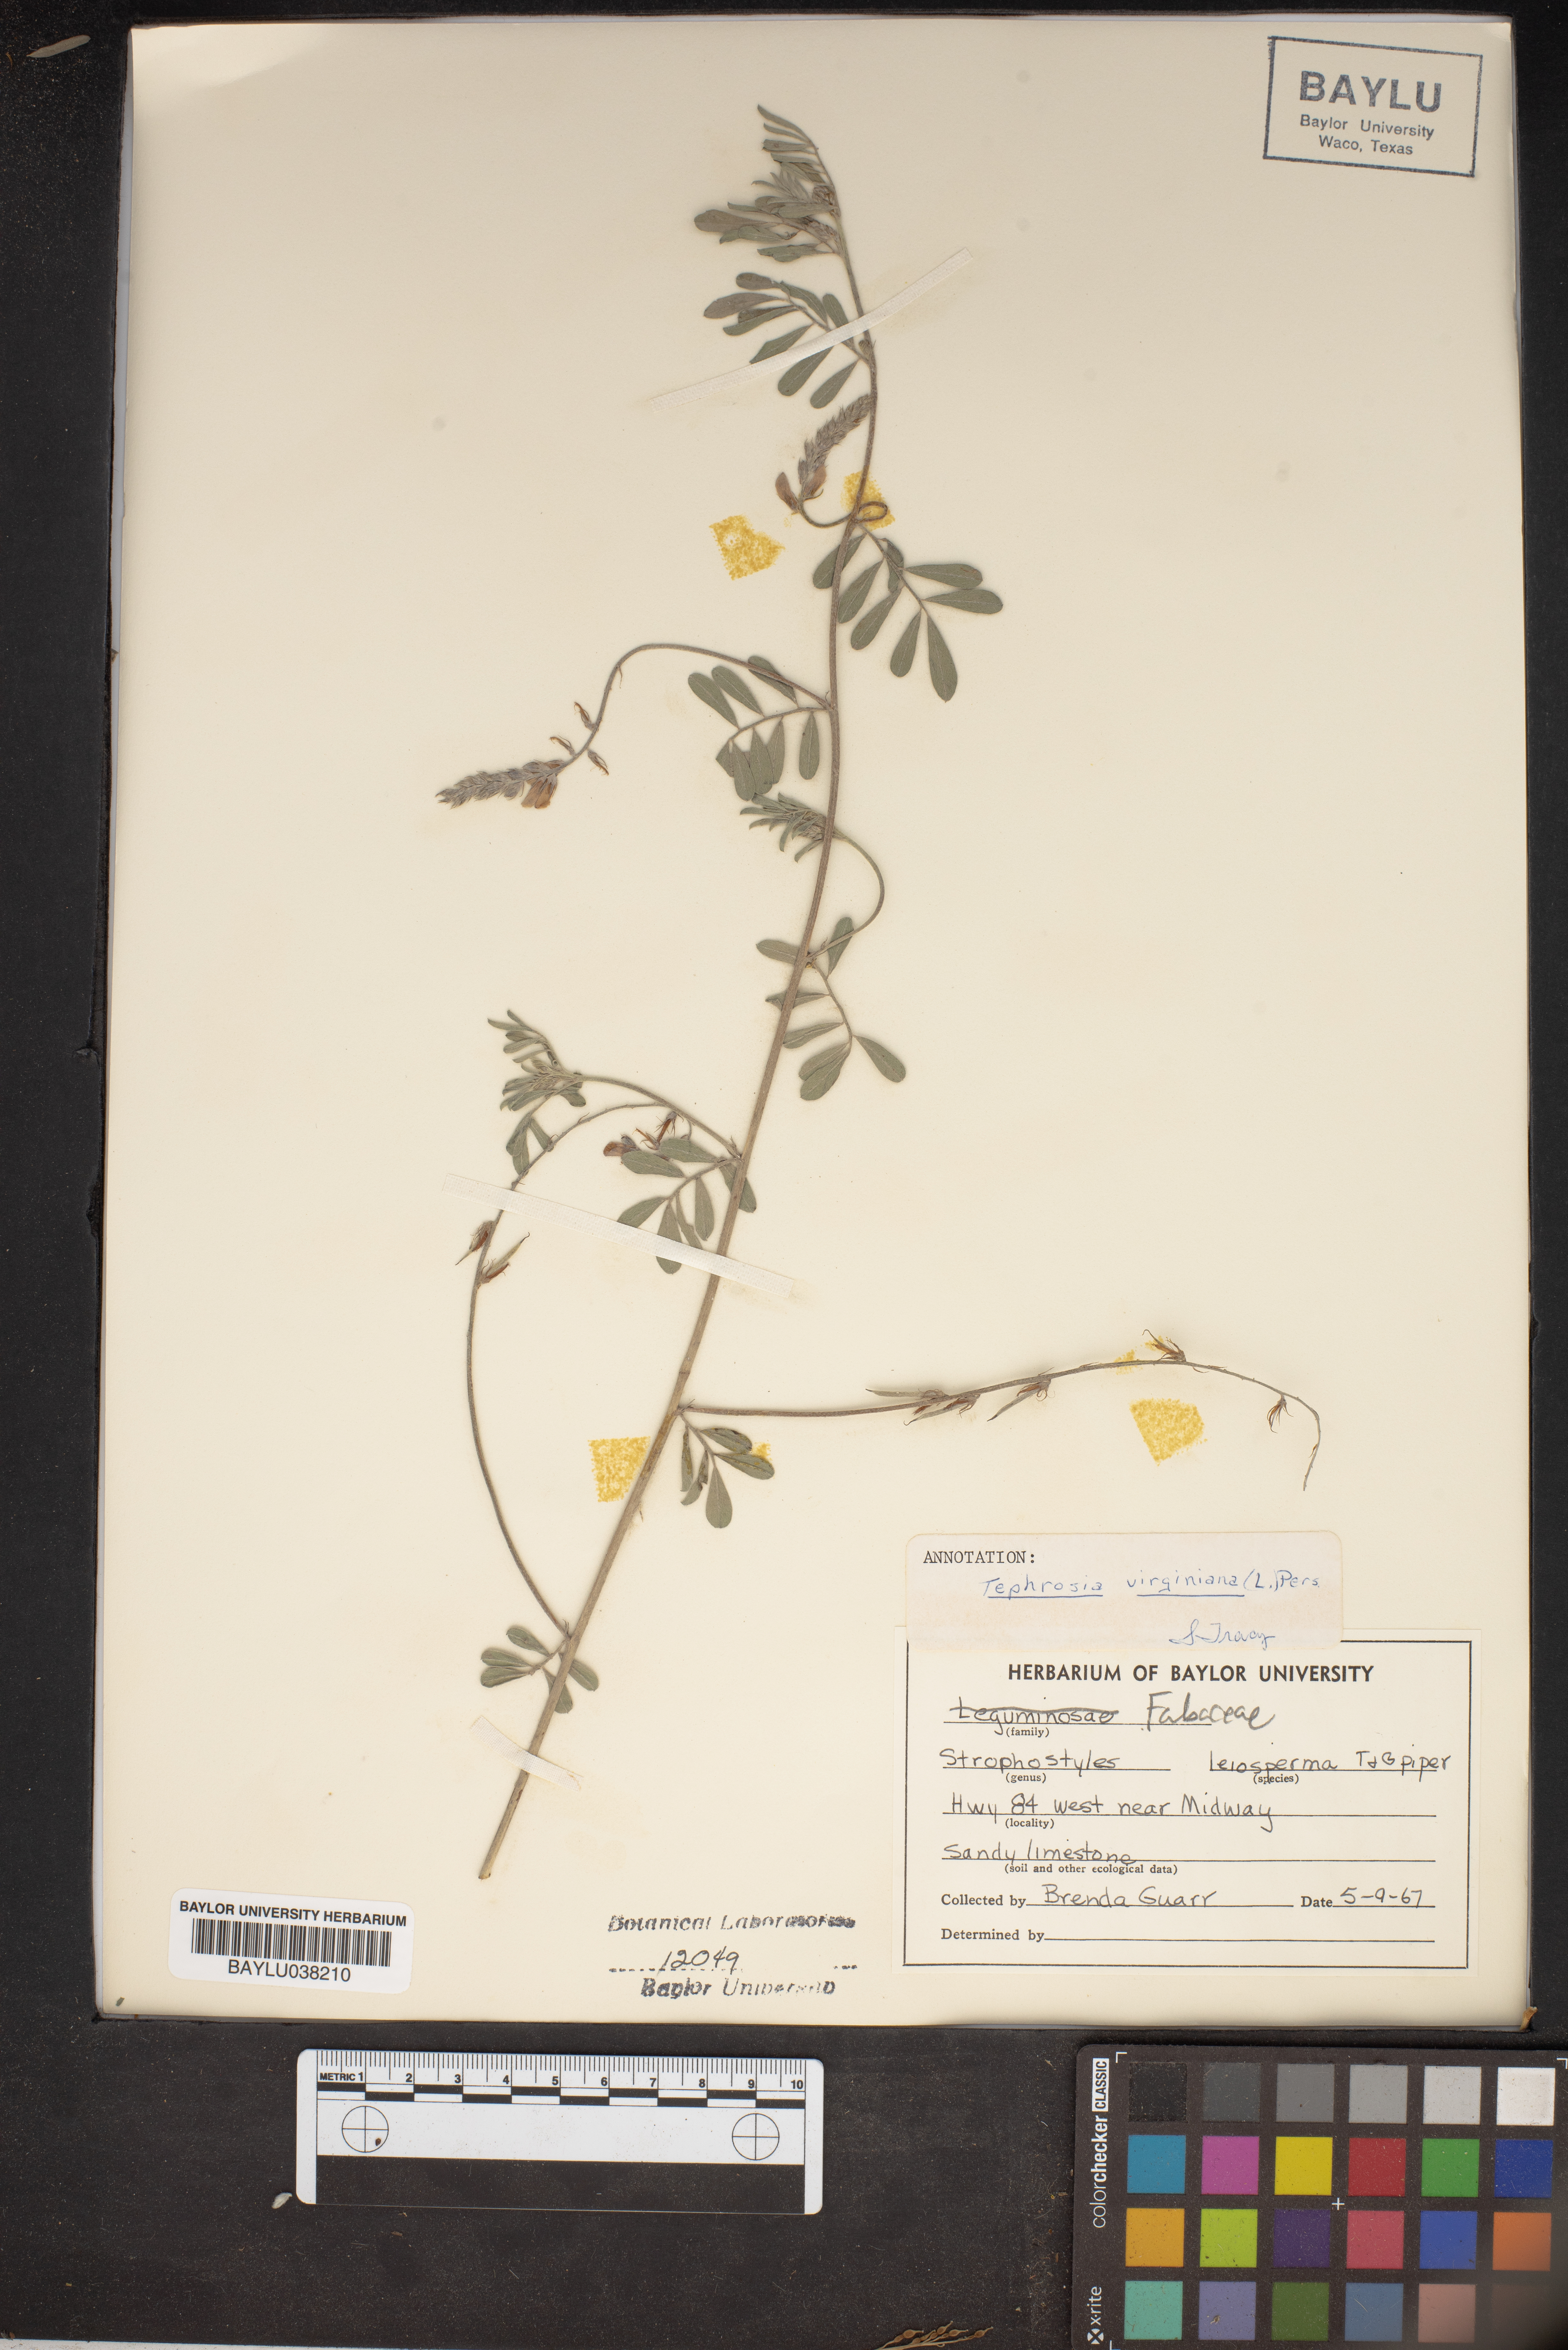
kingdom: Plantae
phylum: Tracheophyta
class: Magnoliopsida
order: Fabales
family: Fabaceae
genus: Strophostyles
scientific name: Strophostyles leiosperma
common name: Smooth-seed wild bean
